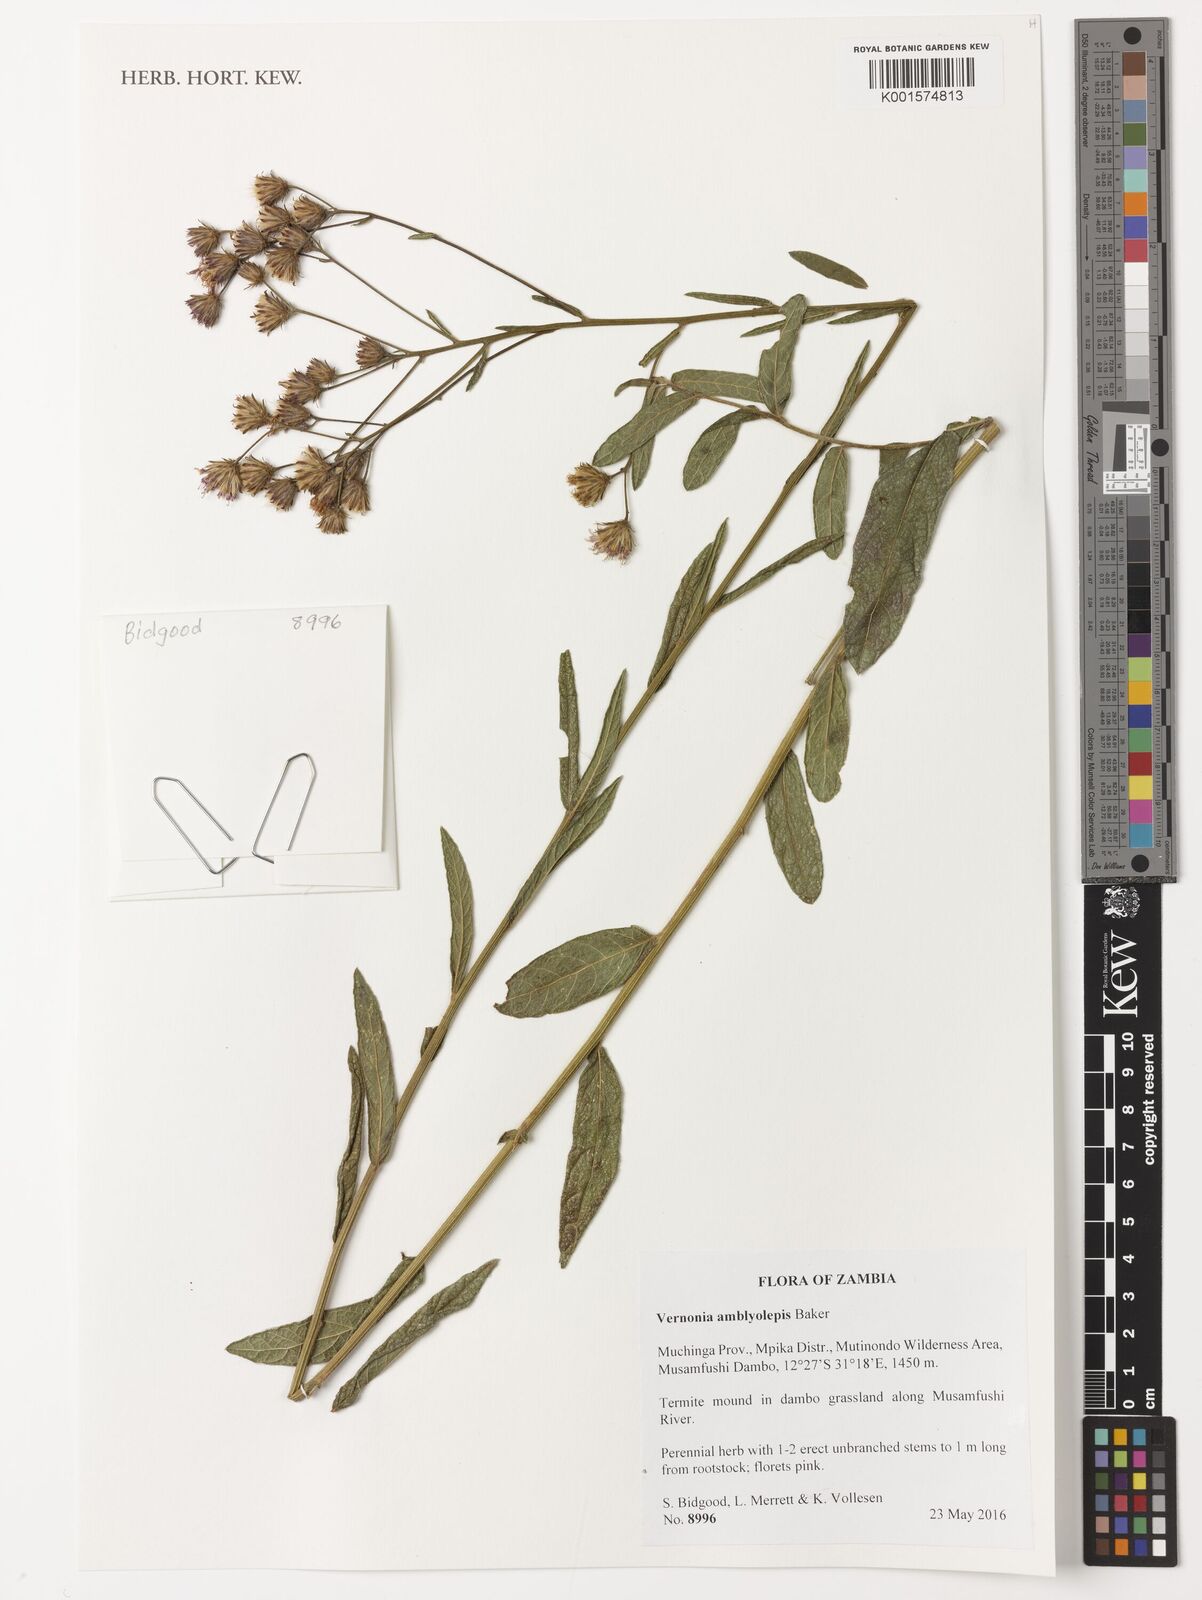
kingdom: Plantae
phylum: Tracheophyta
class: Magnoliopsida
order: Asterales
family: Asteraceae
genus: Nothovernonia
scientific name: Nothovernonia amblyolepis
